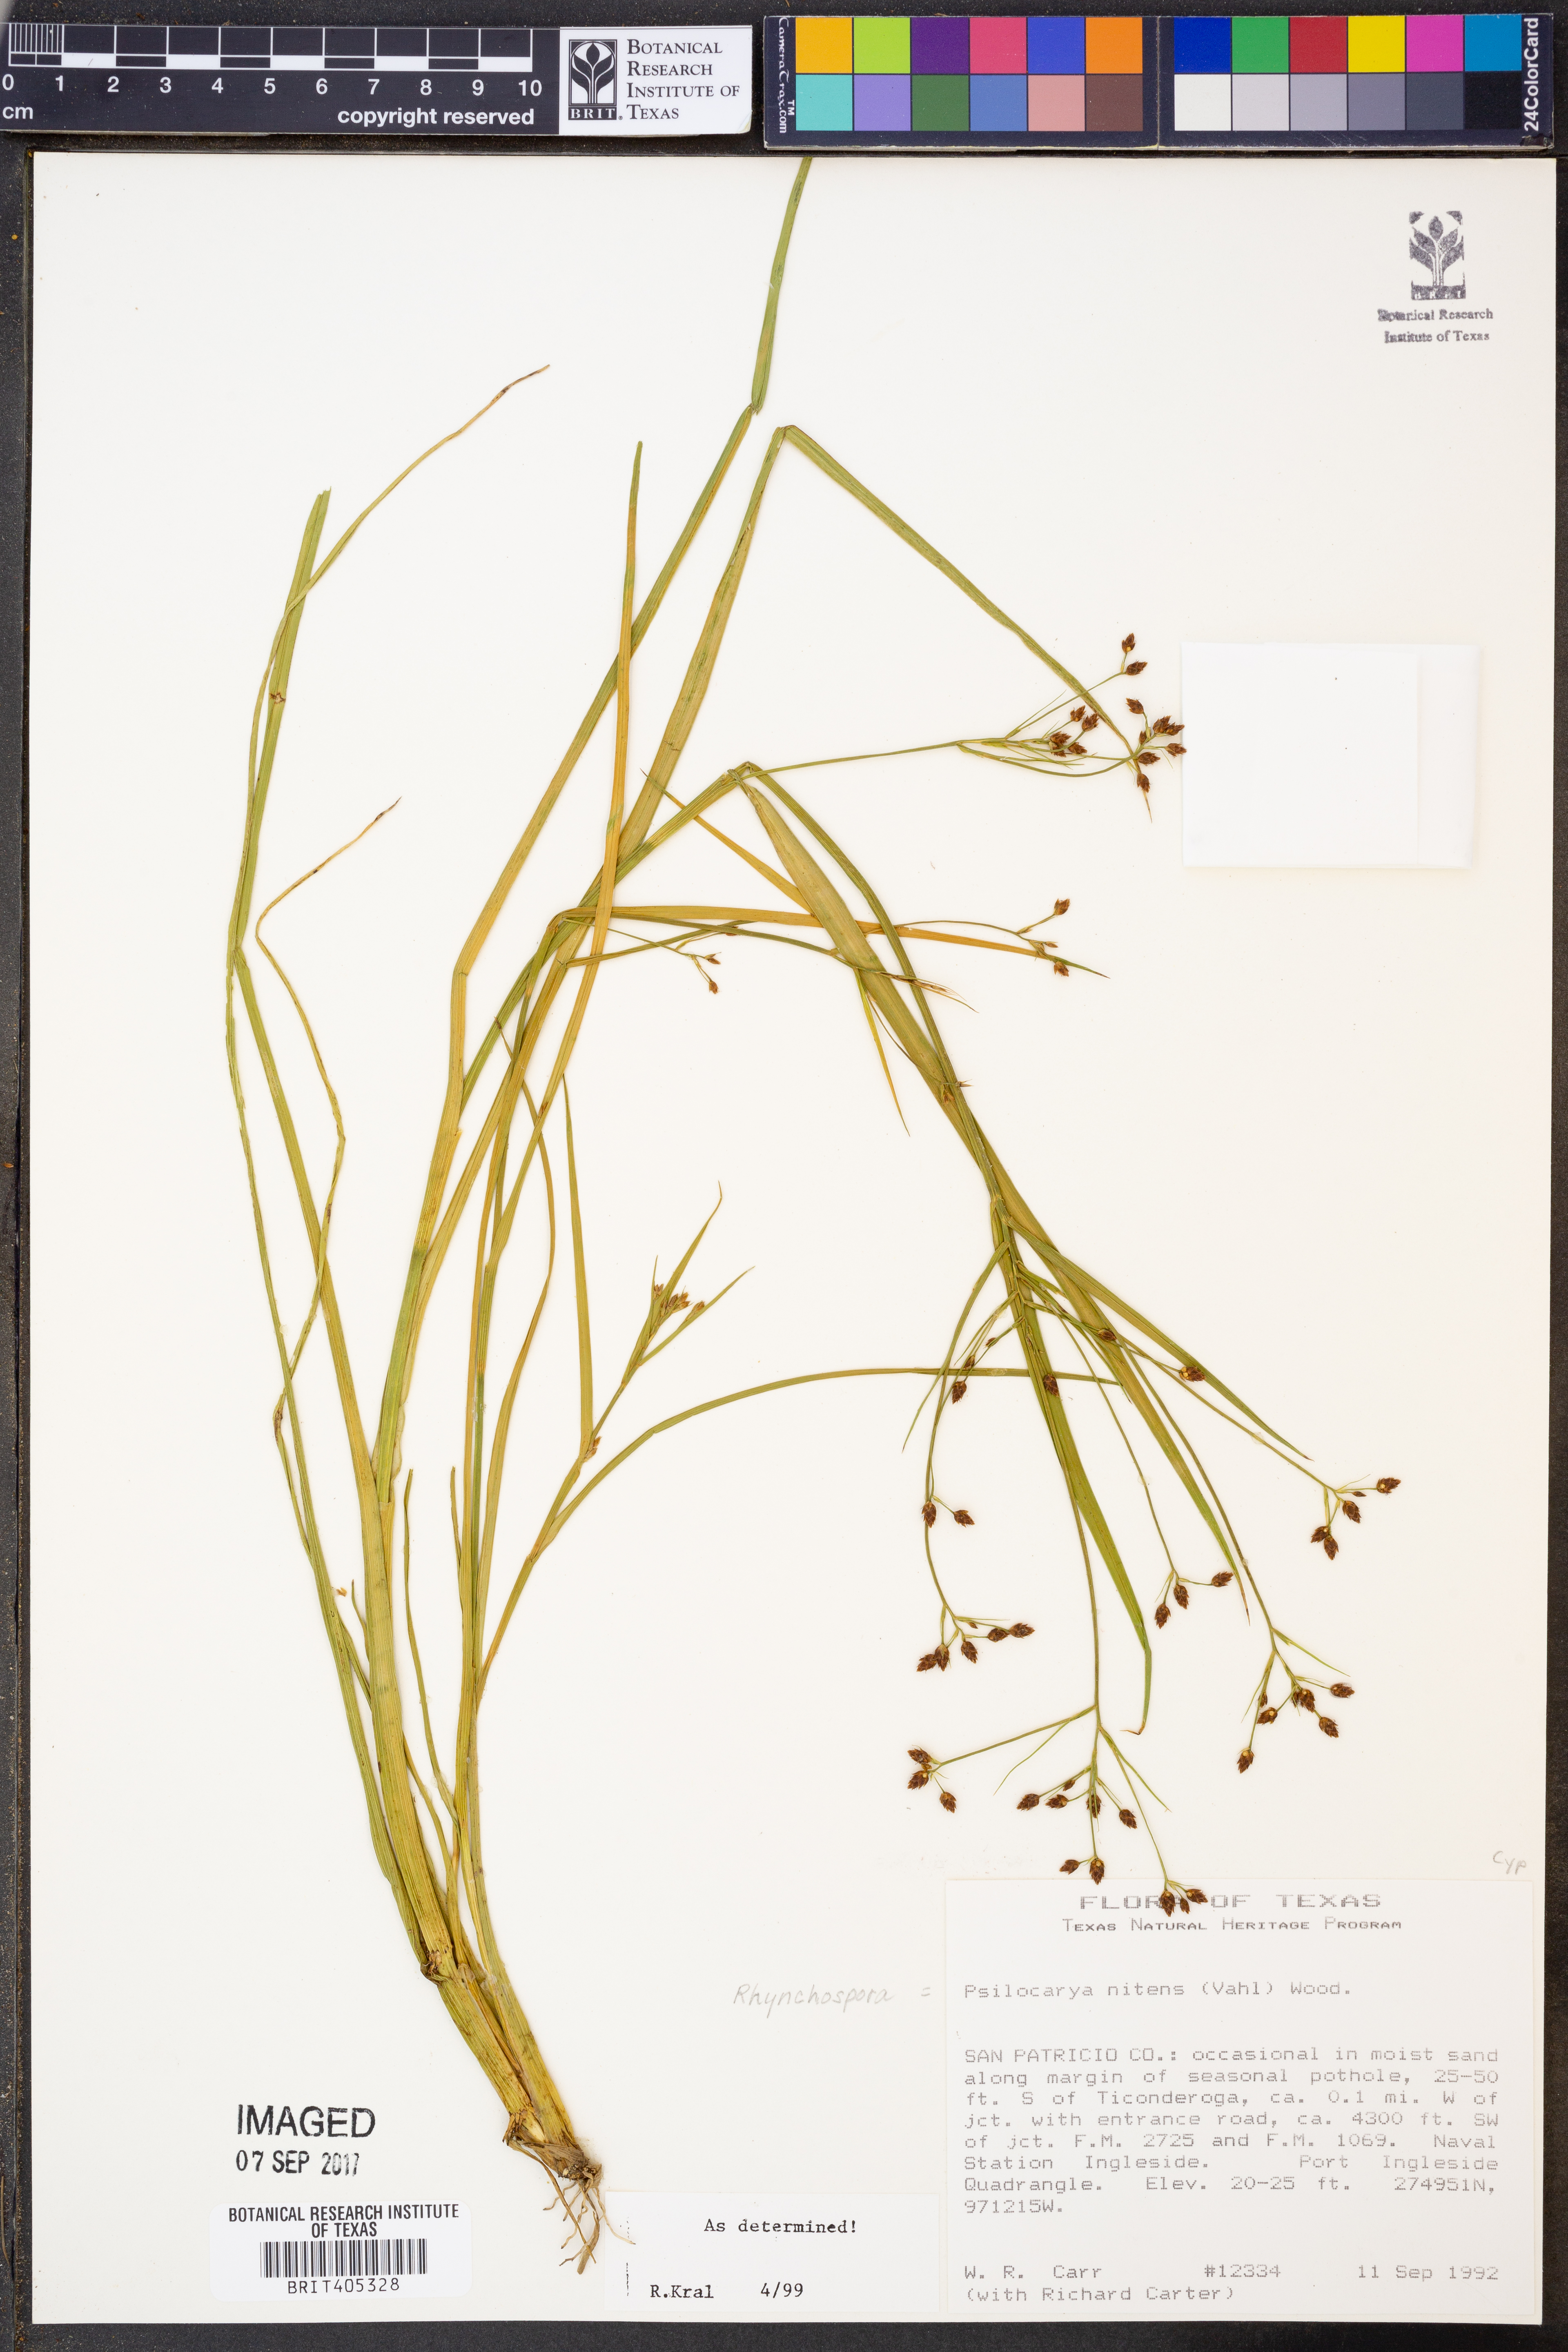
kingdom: Plantae
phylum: Tracheophyta
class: Liliopsida
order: Poales
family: Cyperaceae
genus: Rhynchospora
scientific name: Rhynchospora nitens
